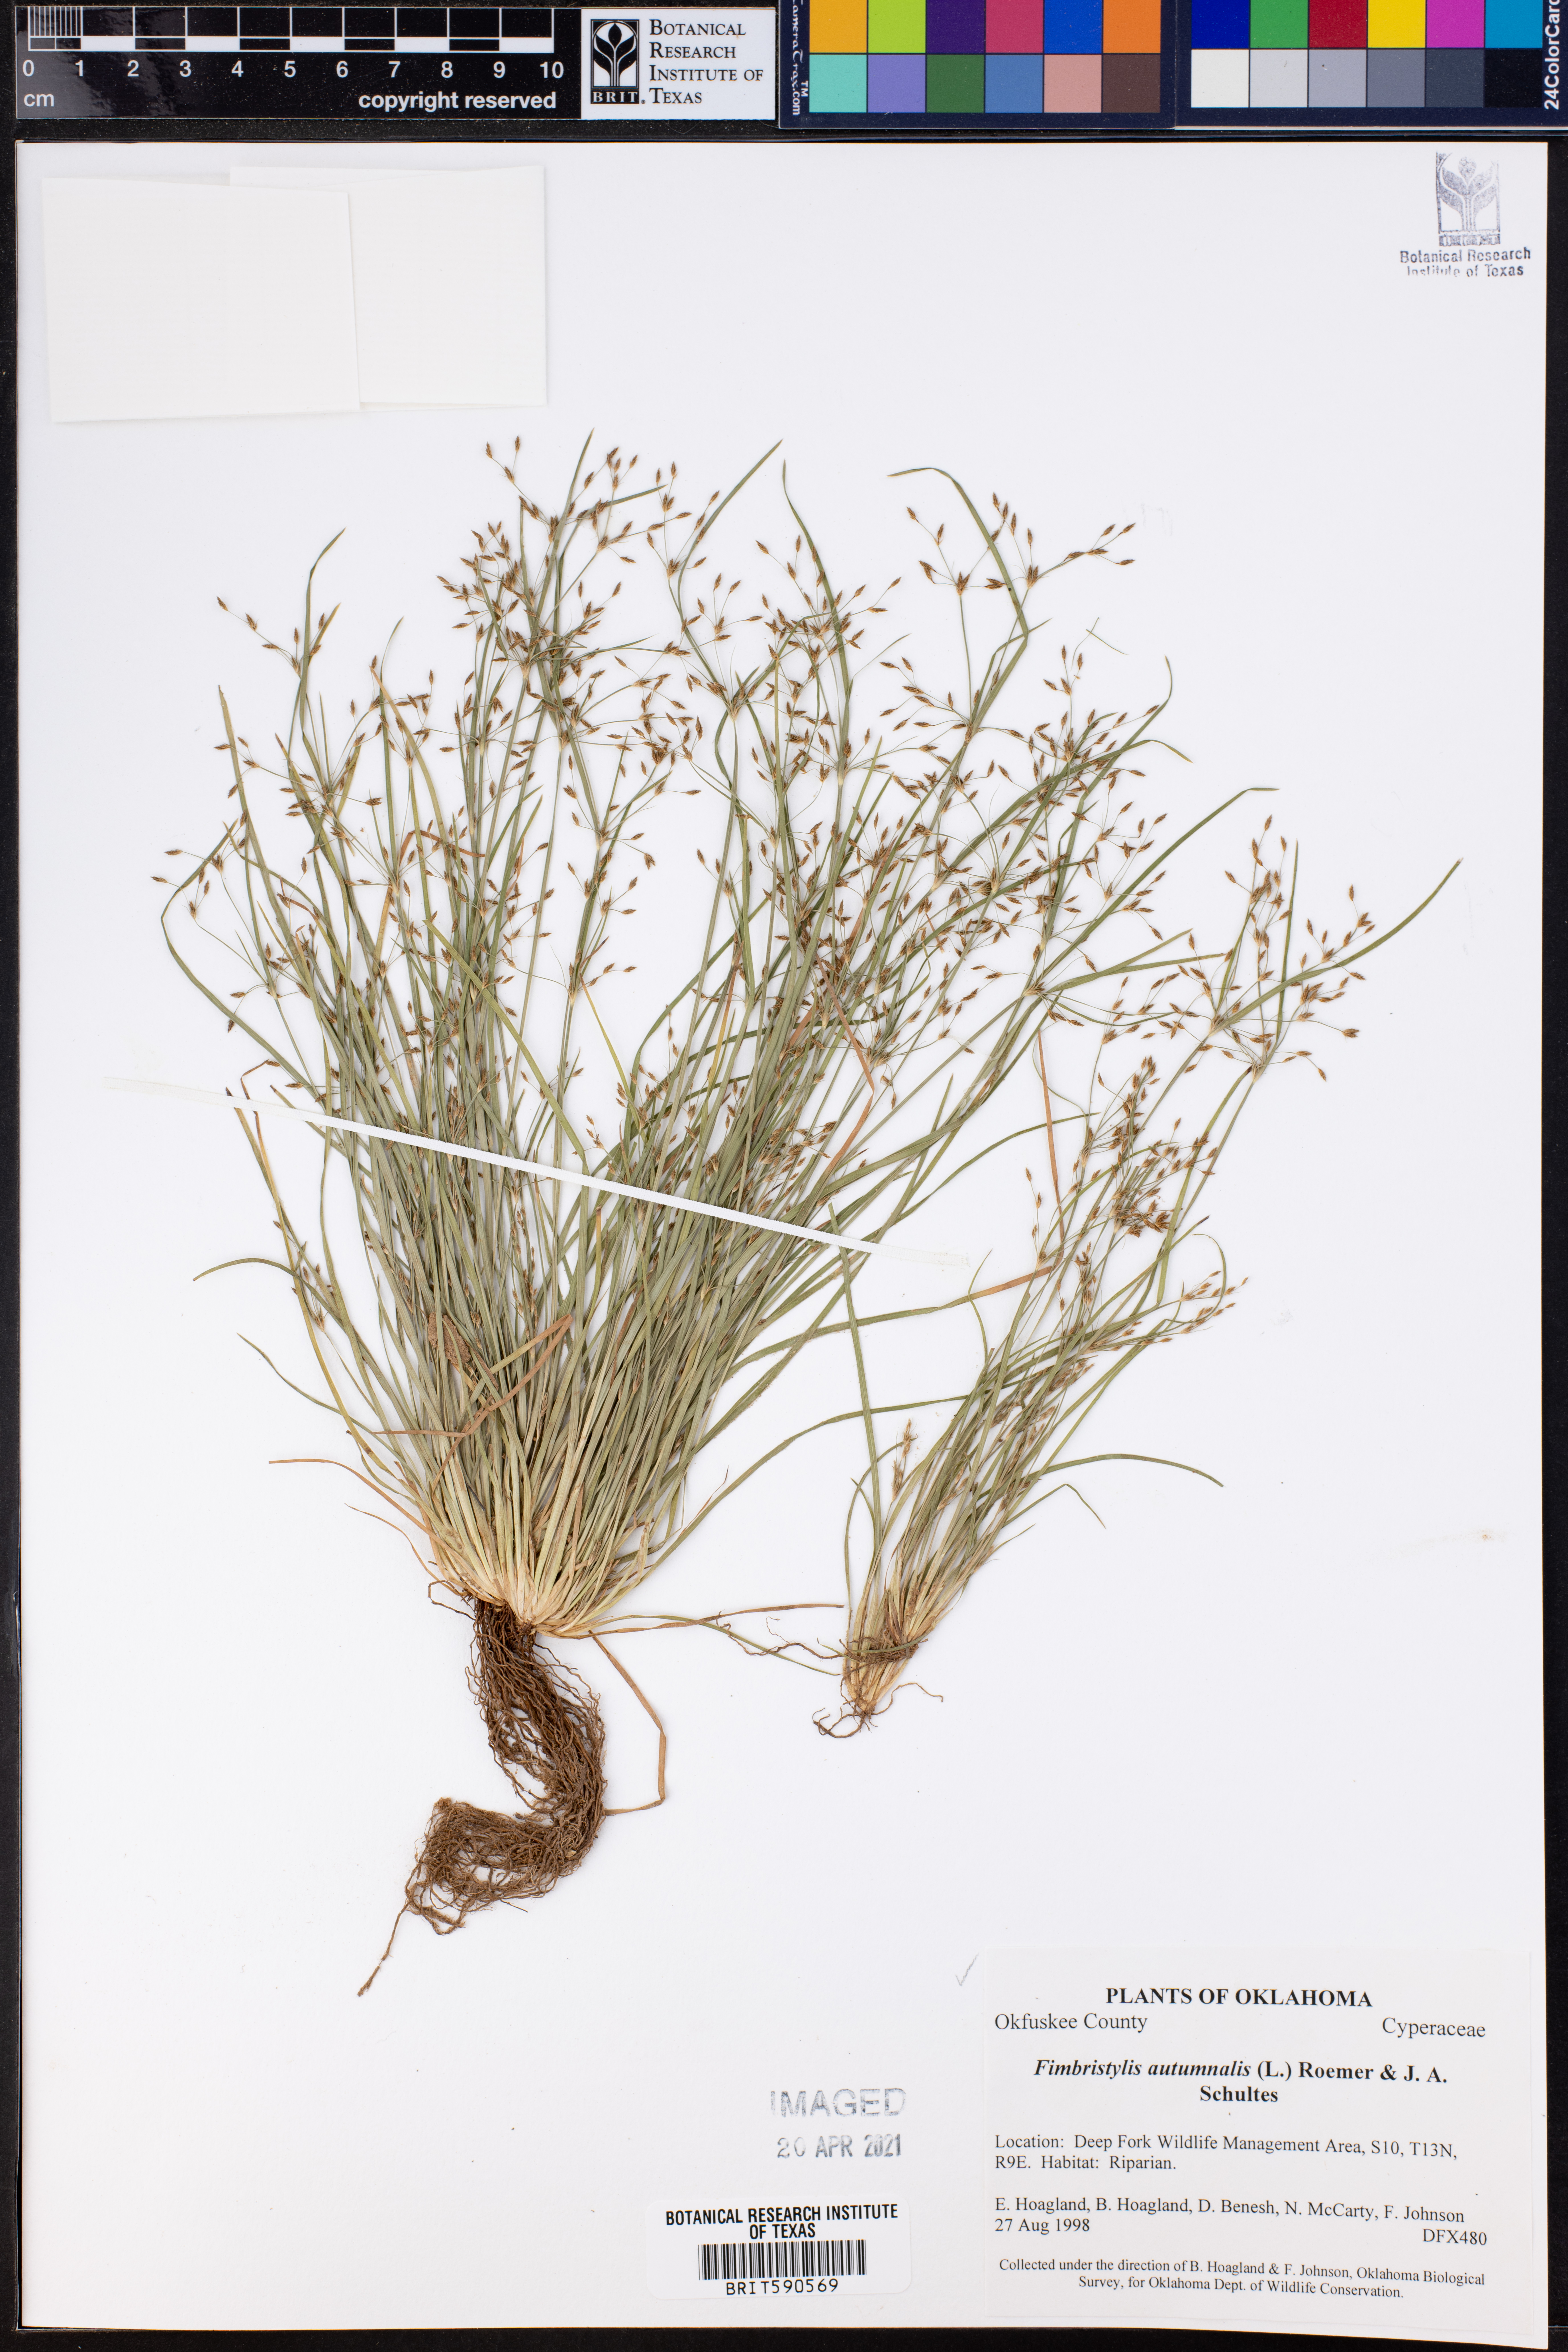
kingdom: Plantae
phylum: Tracheophyta
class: Liliopsida
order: Poales
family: Cyperaceae
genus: Fimbristylis
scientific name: Fimbristylis autumnalis
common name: Slender fimbristylis
